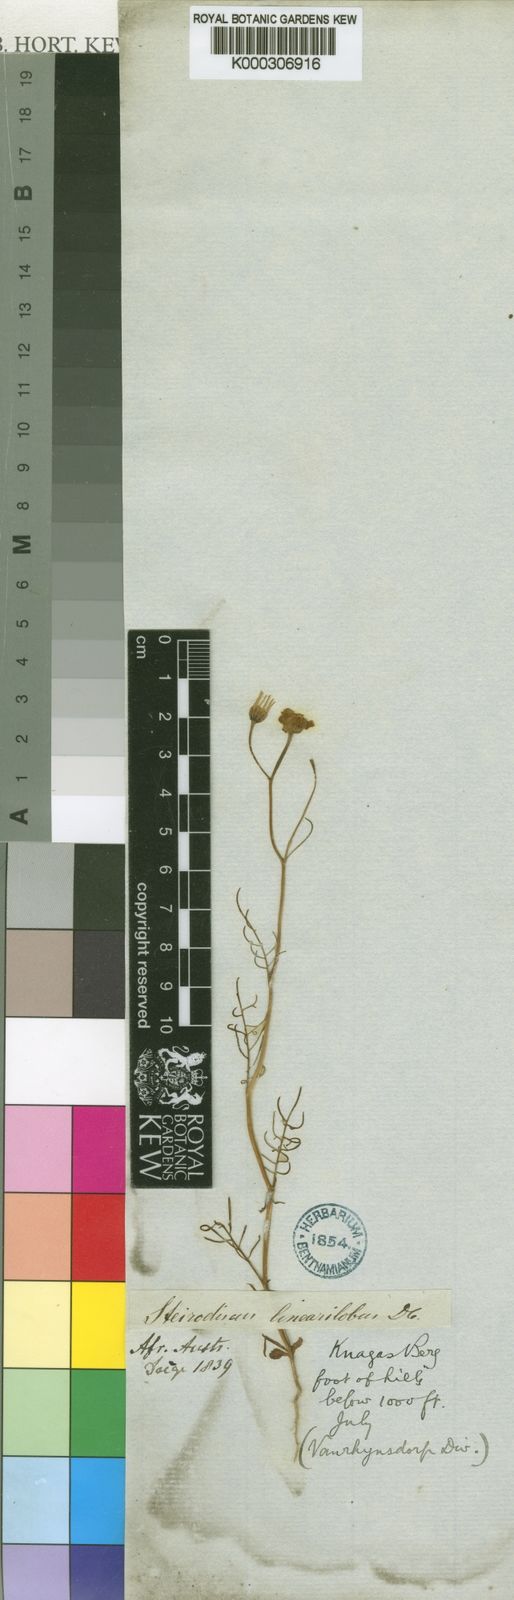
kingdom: Plantae
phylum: Tracheophyta
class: Magnoliopsida
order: Asterales
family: Asteraceae
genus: Steirodiscus
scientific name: Steirodiscus linearilobus
